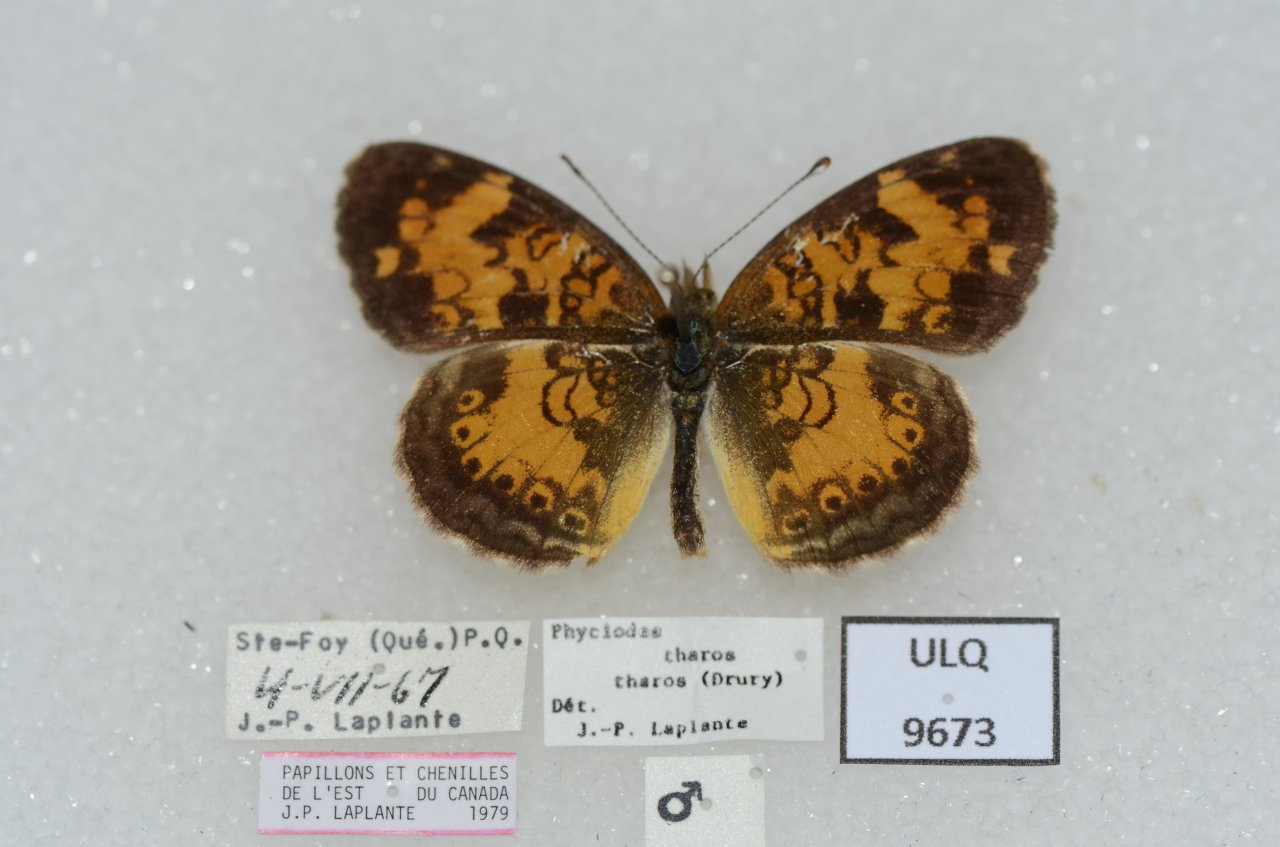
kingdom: Animalia
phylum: Arthropoda
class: Insecta
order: Lepidoptera
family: Nymphalidae
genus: Phyciodes
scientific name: Phyciodes tharos
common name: Northern Crescent
